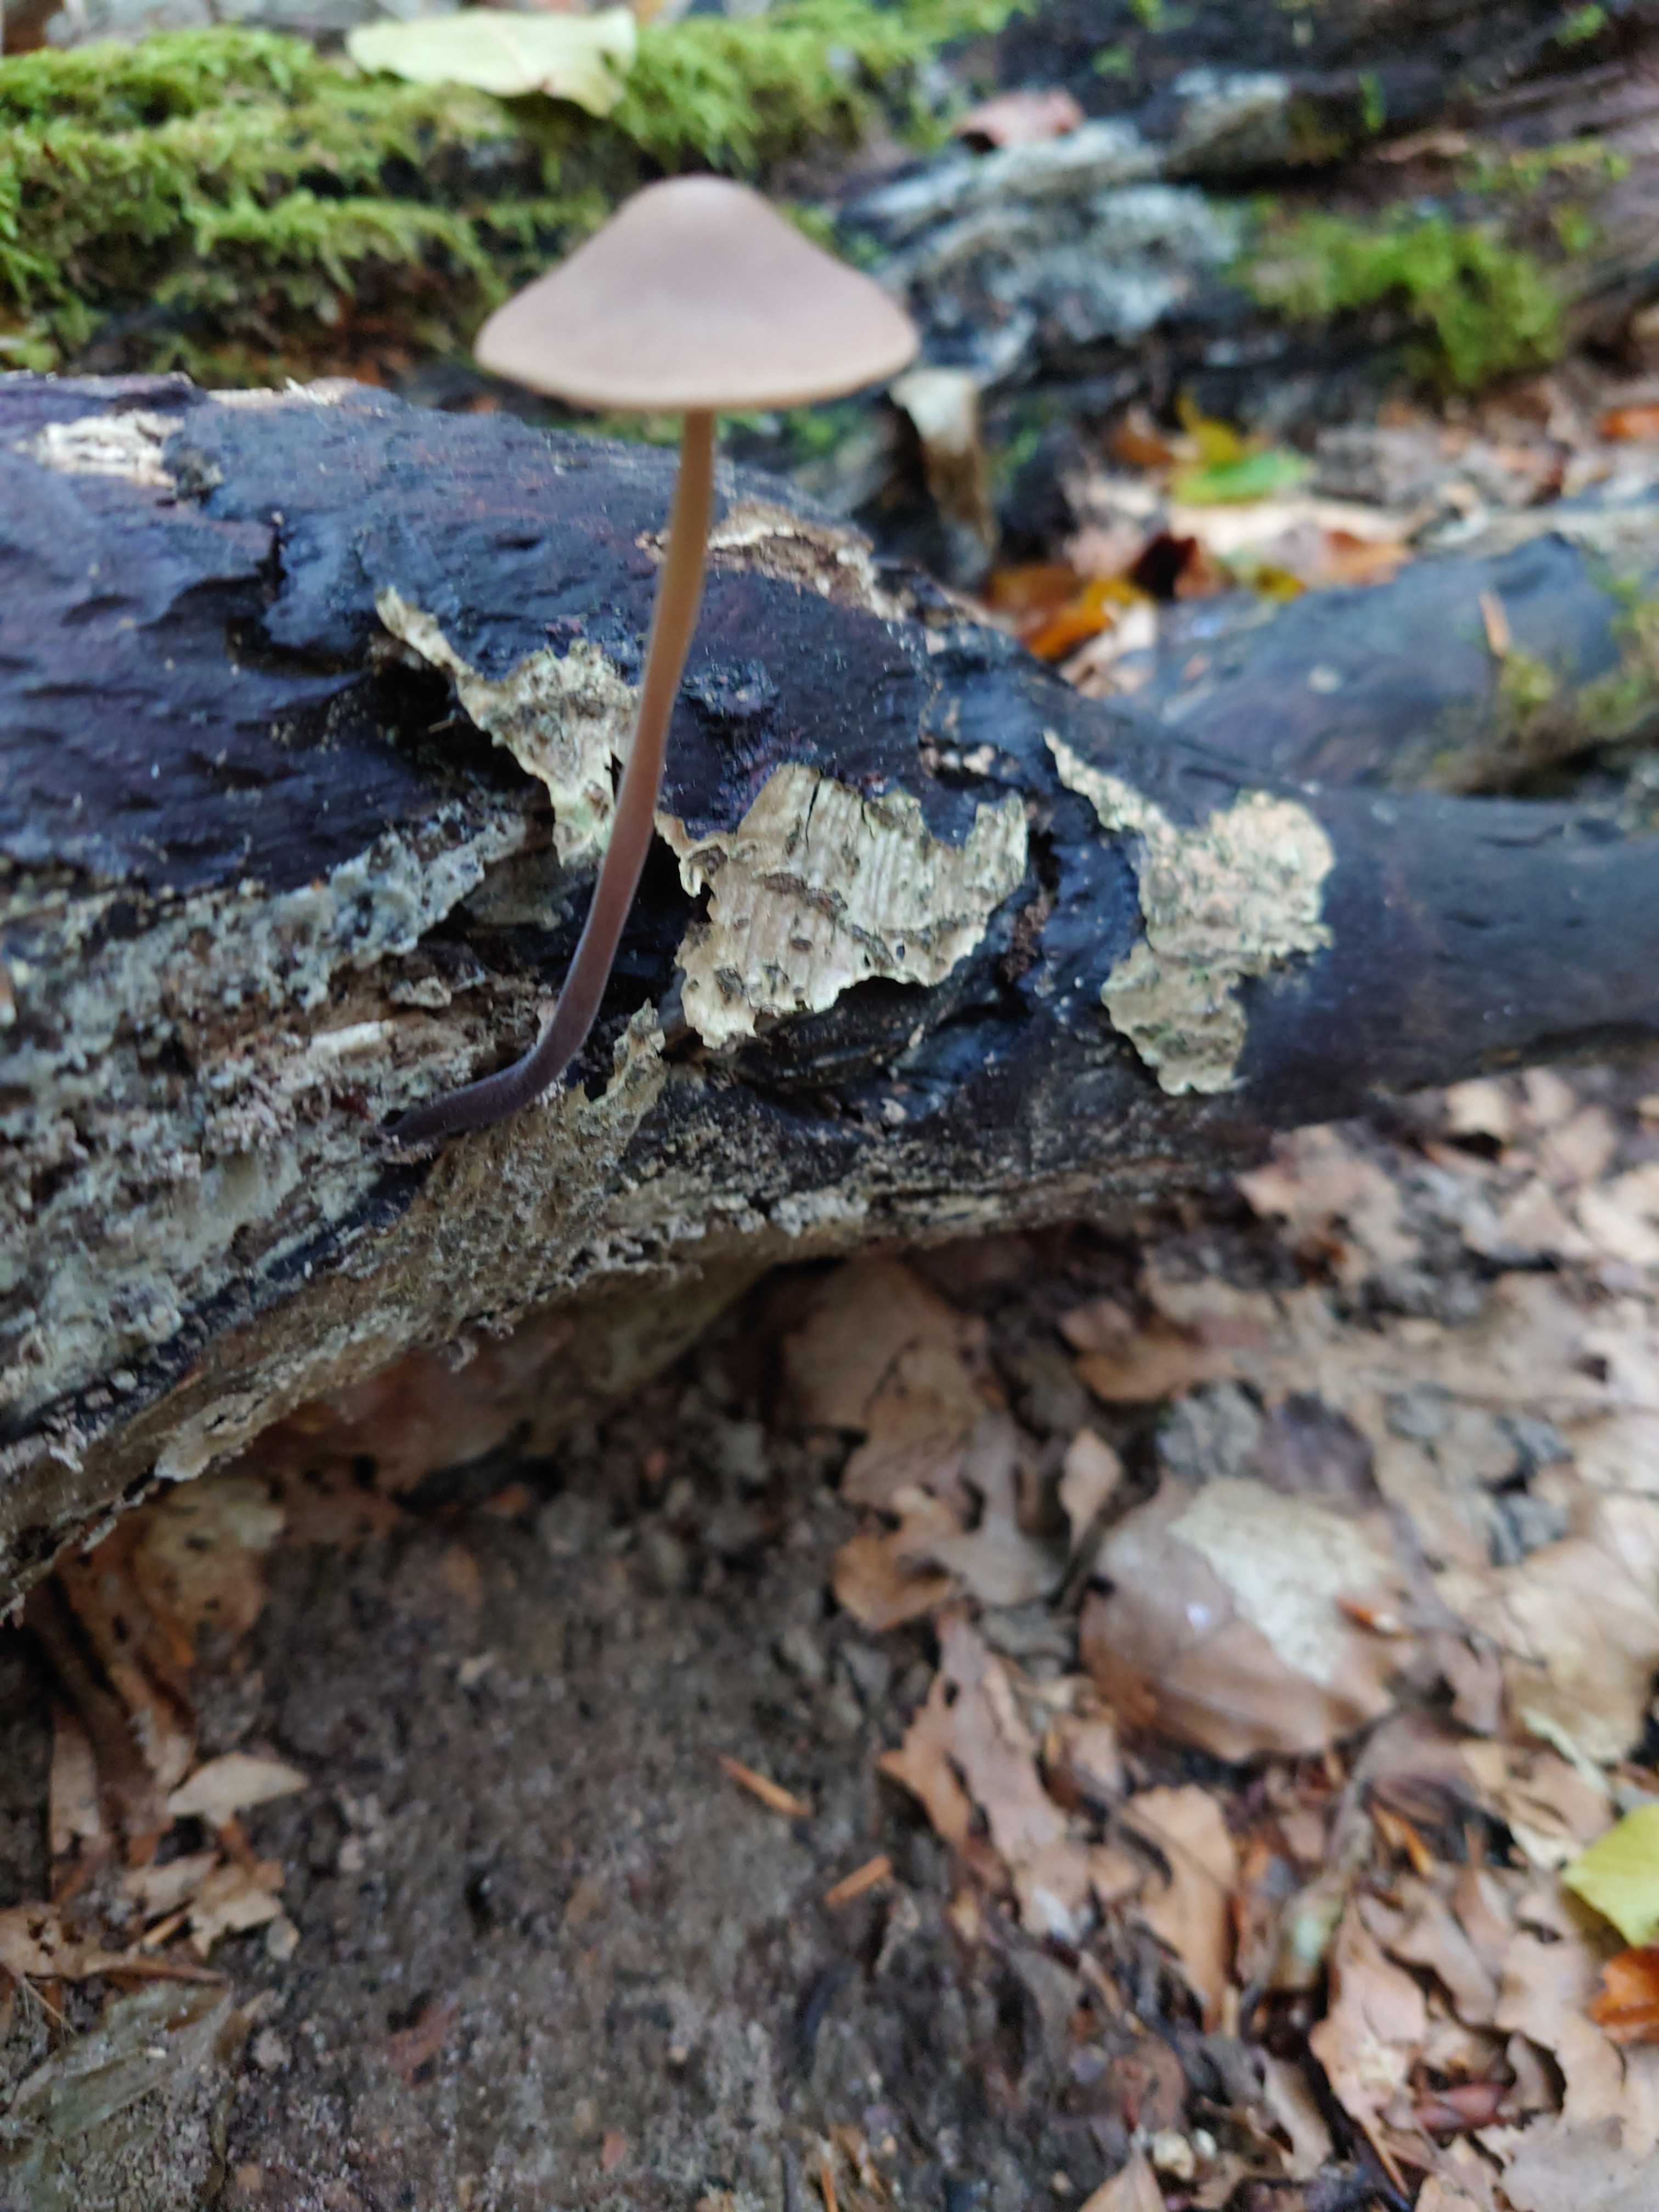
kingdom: Fungi
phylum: Basidiomycota
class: Agaricomycetes
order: Agaricales
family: Omphalotaceae
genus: Mycetinis
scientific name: Mycetinis alliaceus
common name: stor løghat
